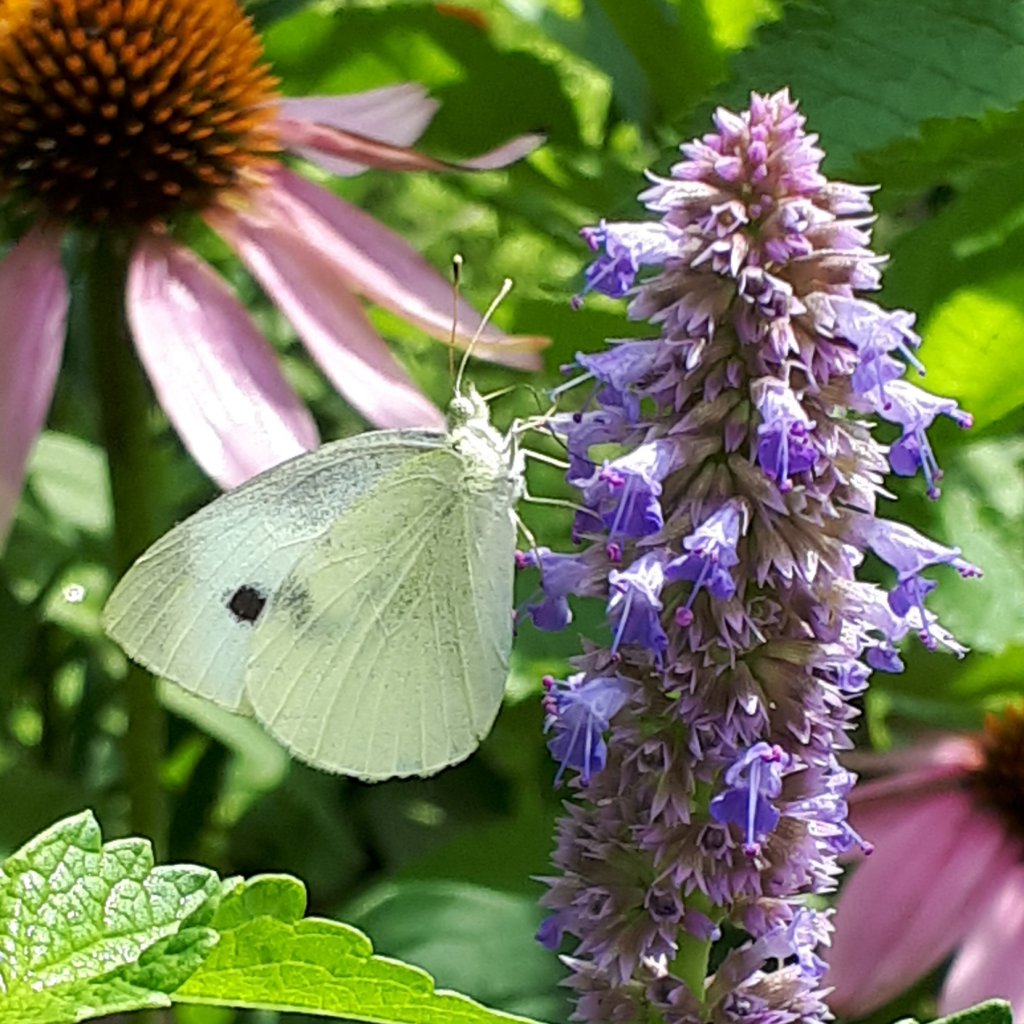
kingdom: Animalia
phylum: Arthropoda
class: Insecta
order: Lepidoptera
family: Pieridae
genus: Pieris
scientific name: Pieris rapae
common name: Cabbage White
